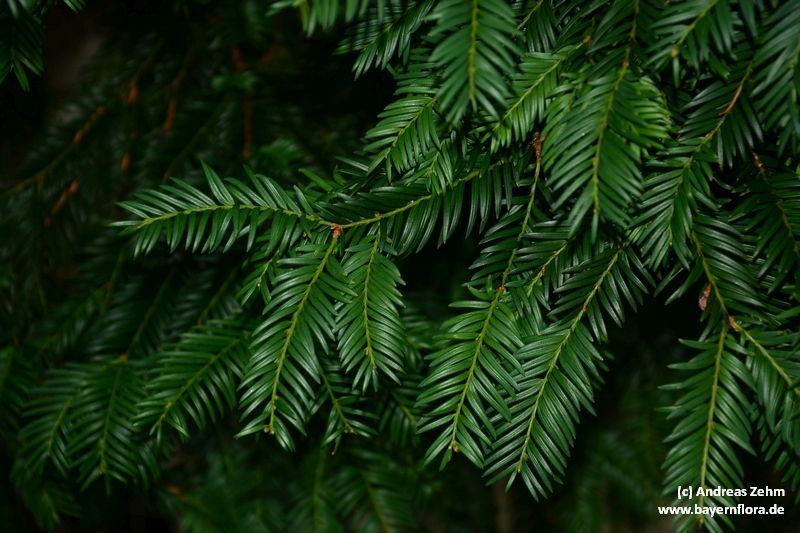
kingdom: Plantae
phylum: Tracheophyta
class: Pinopsida
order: Pinales
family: Taxaceae
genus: Taxus
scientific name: Taxus baccata
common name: Yew
